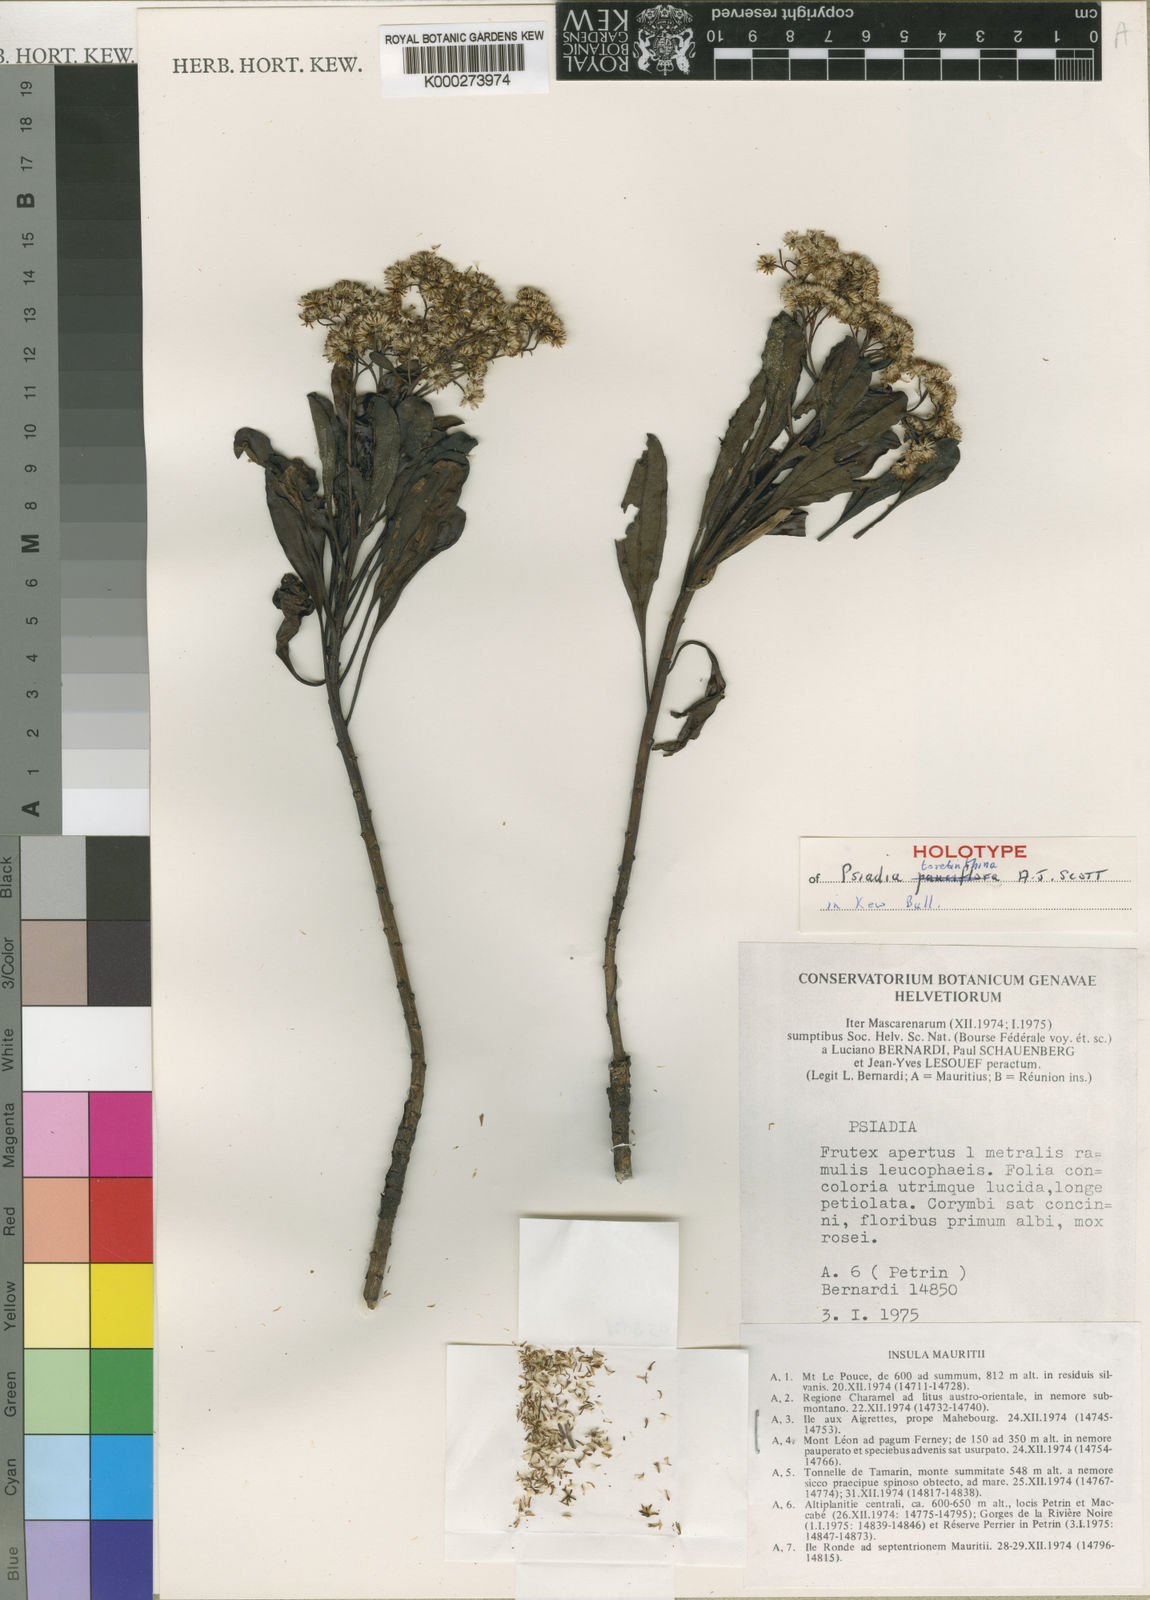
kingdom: Plantae
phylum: Tracheophyta
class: Magnoliopsida
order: Asterales
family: Asteraceae
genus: Psiadia
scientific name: Psiadia terebinthina
